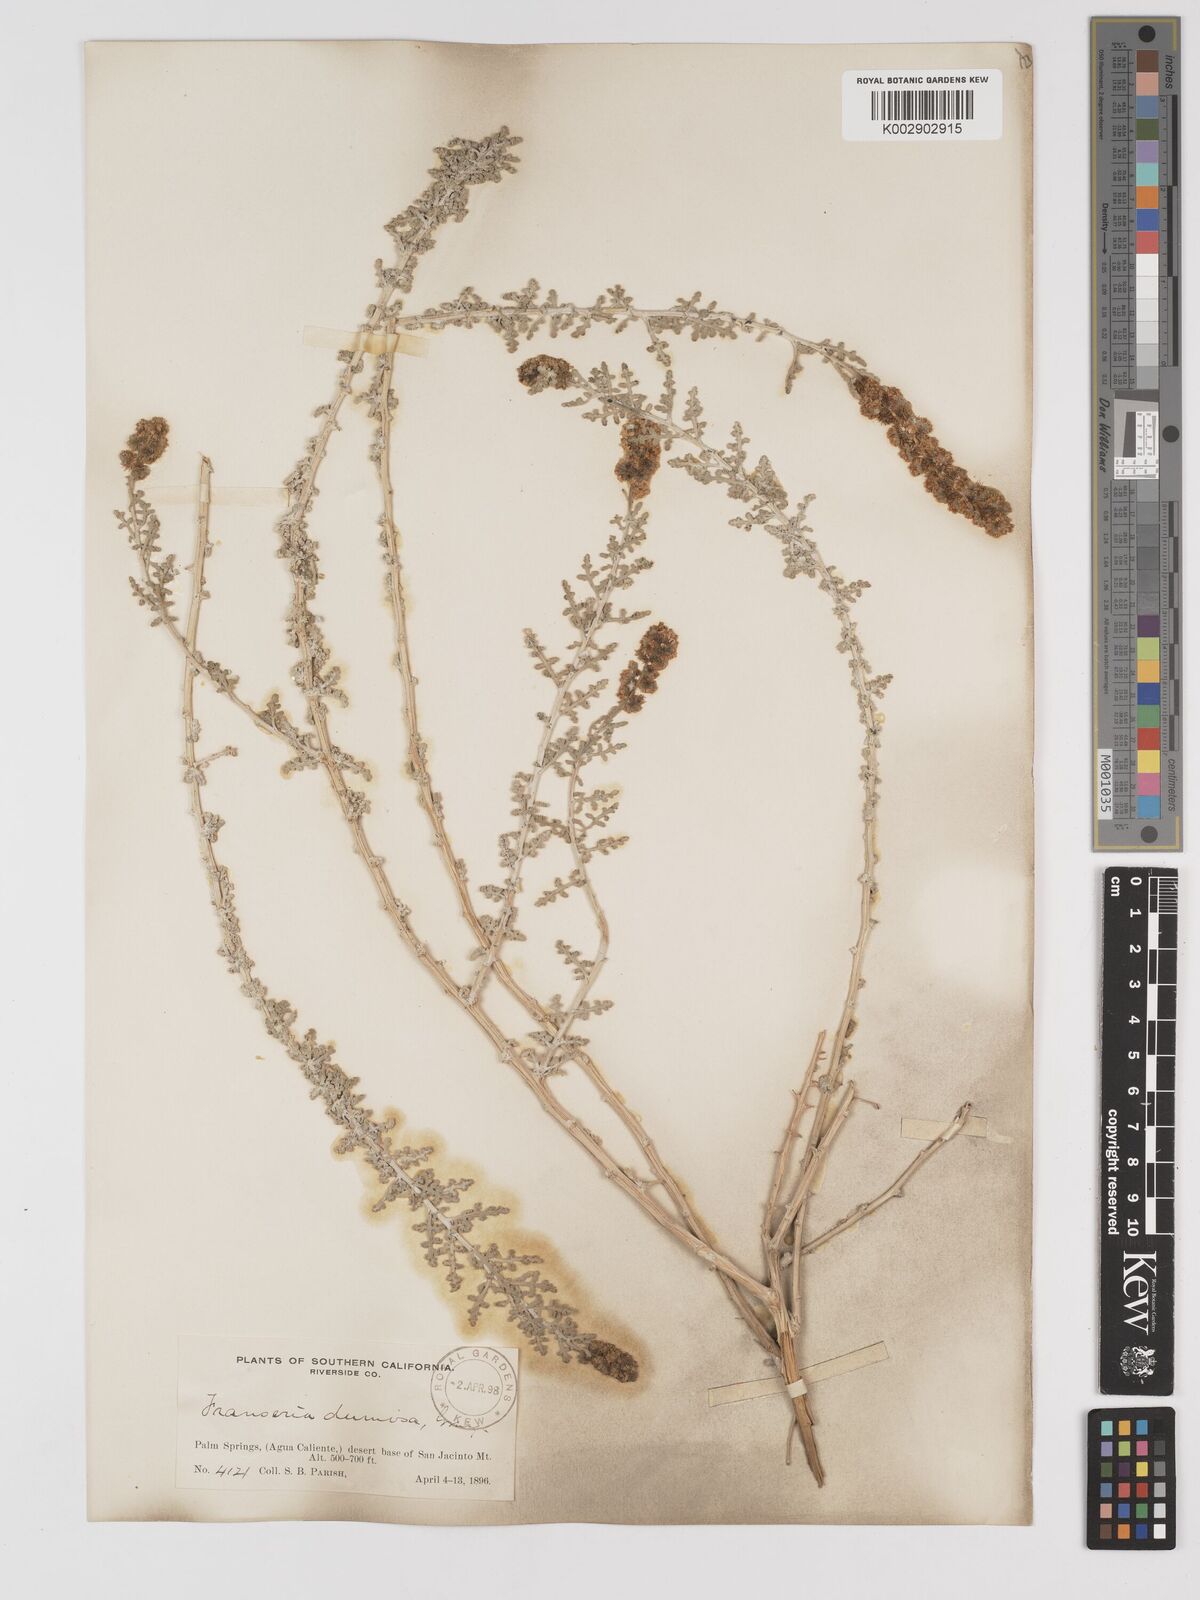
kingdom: Plantae
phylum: Tracheophyta
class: Magnoliopsida
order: Asterales
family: Asteraceae
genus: Ambrosia
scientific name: Ambrosia dumosa
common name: Bur-sage
